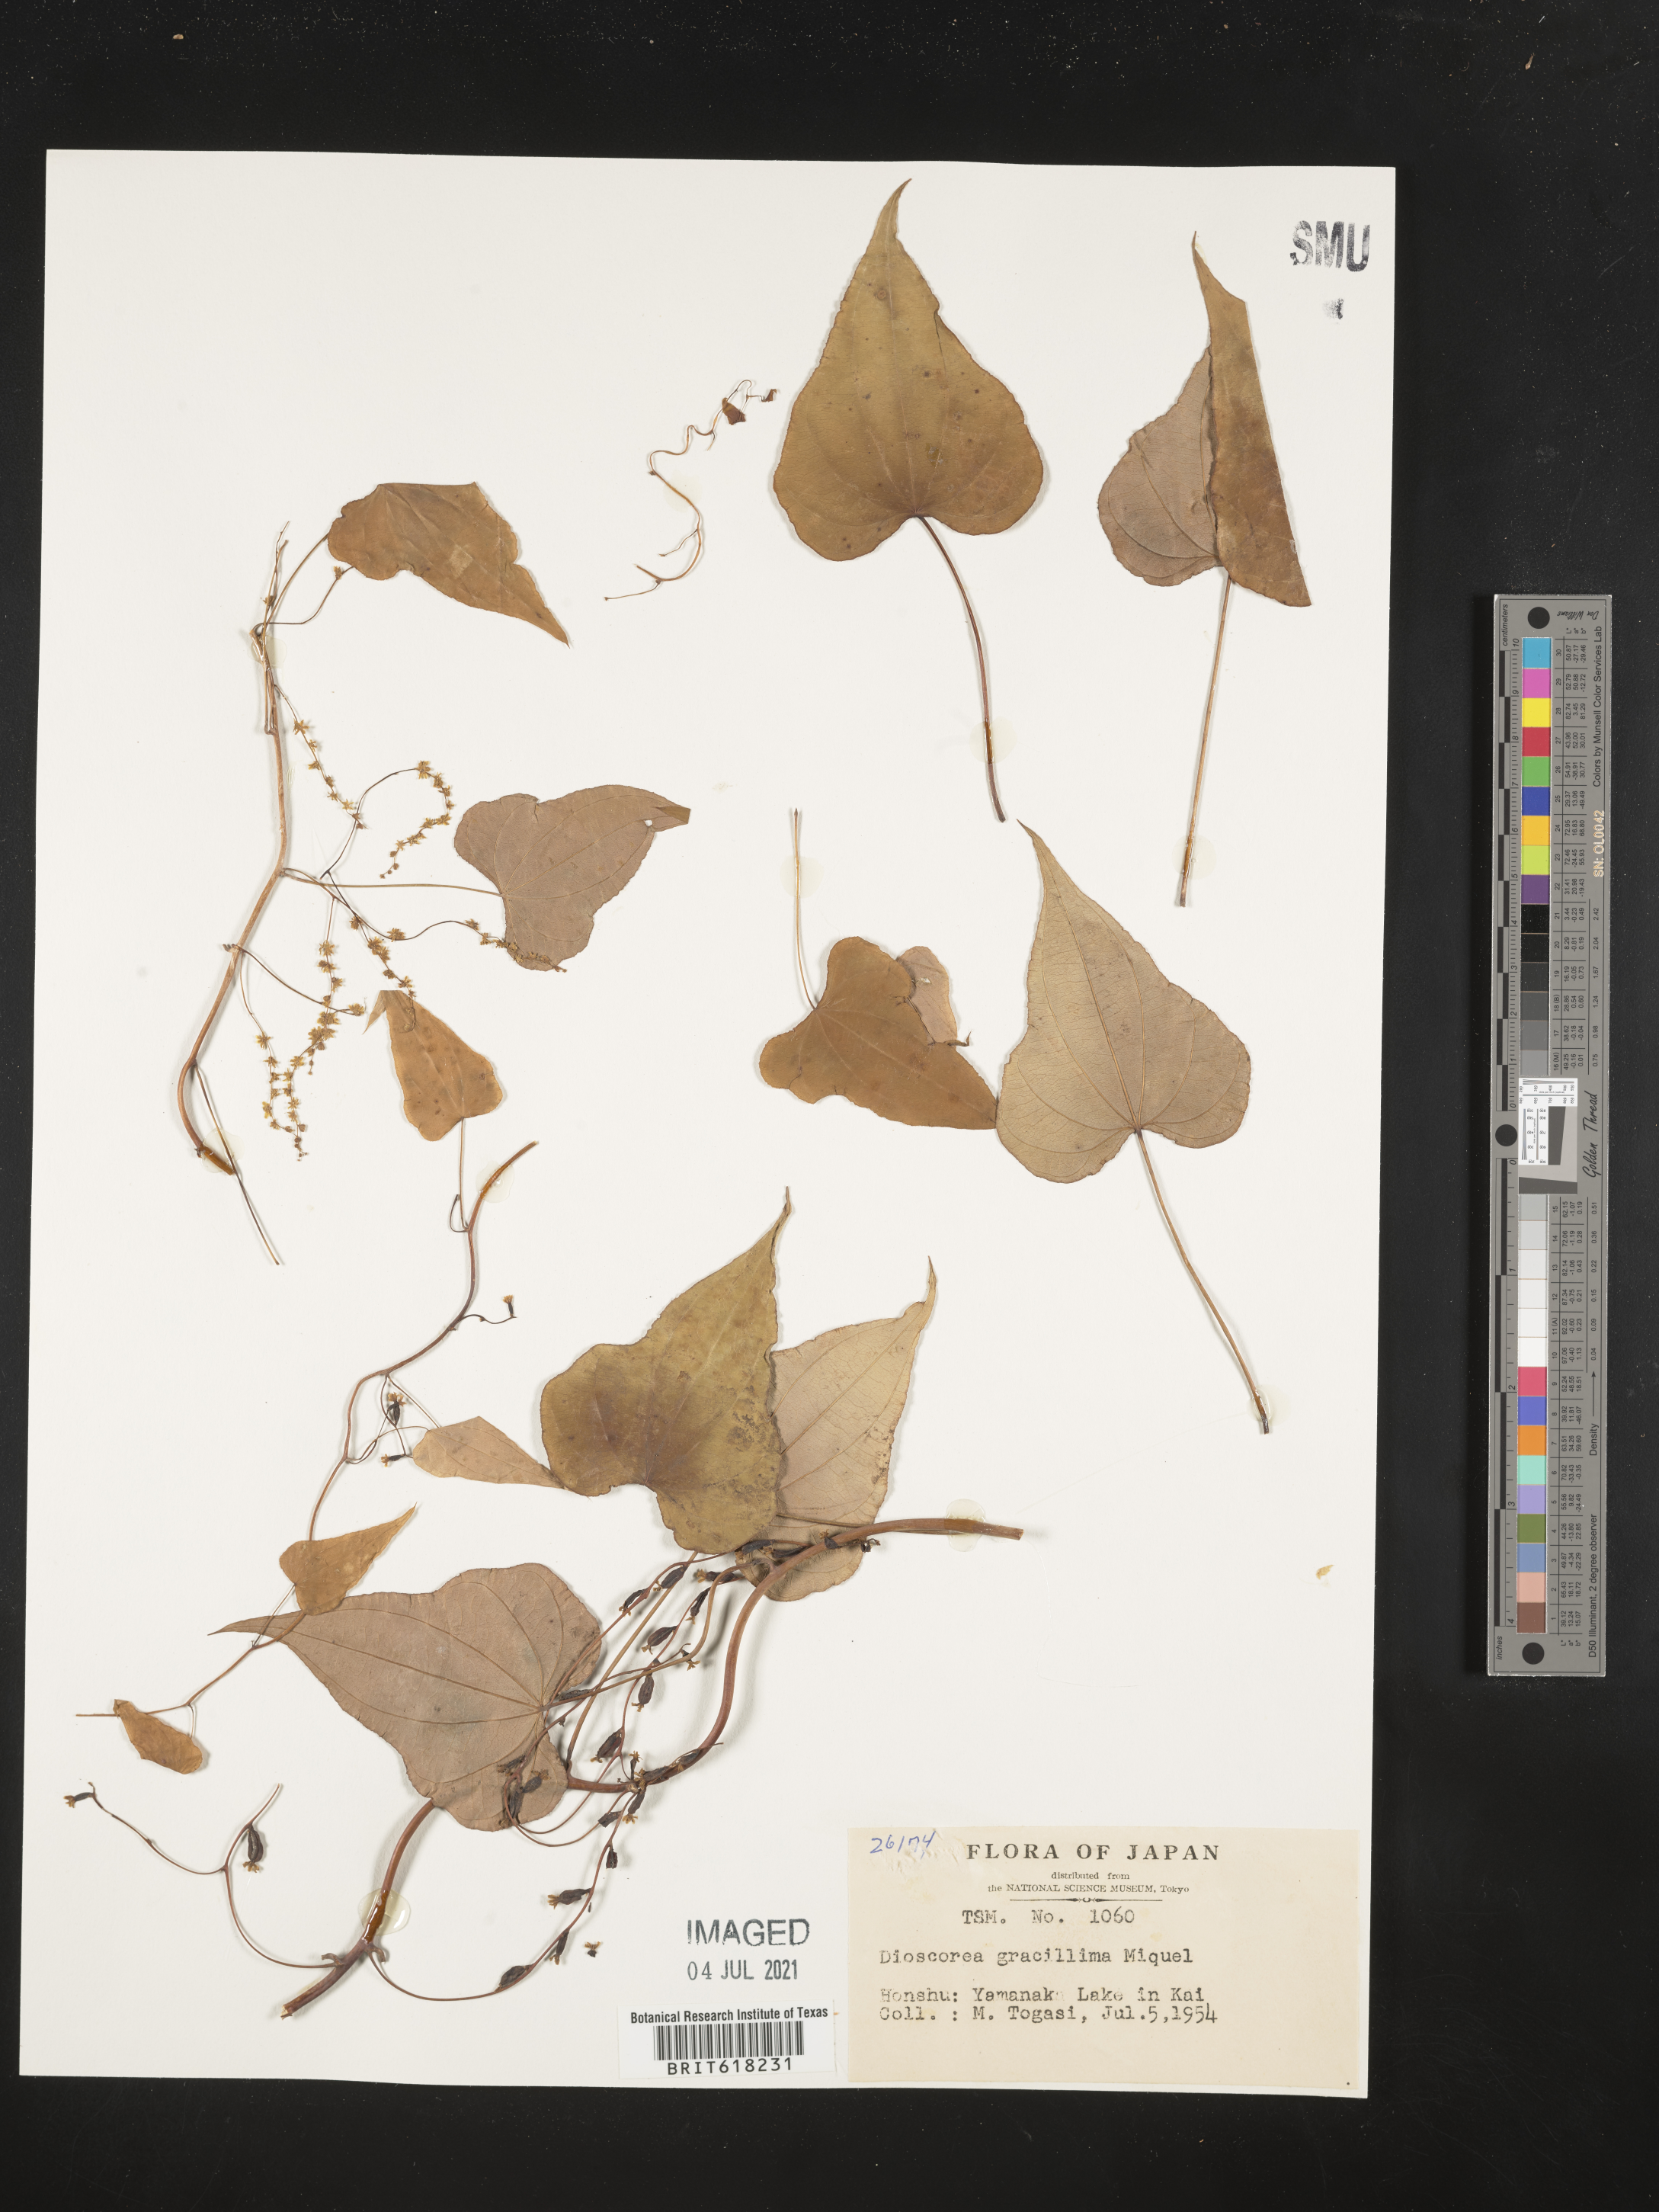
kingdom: Plantae
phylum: Tracheophyta
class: Liliopsida
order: Dioscoreales
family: Dioscoreaceae
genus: Dioscorea
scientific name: Dioscorea gracillima
